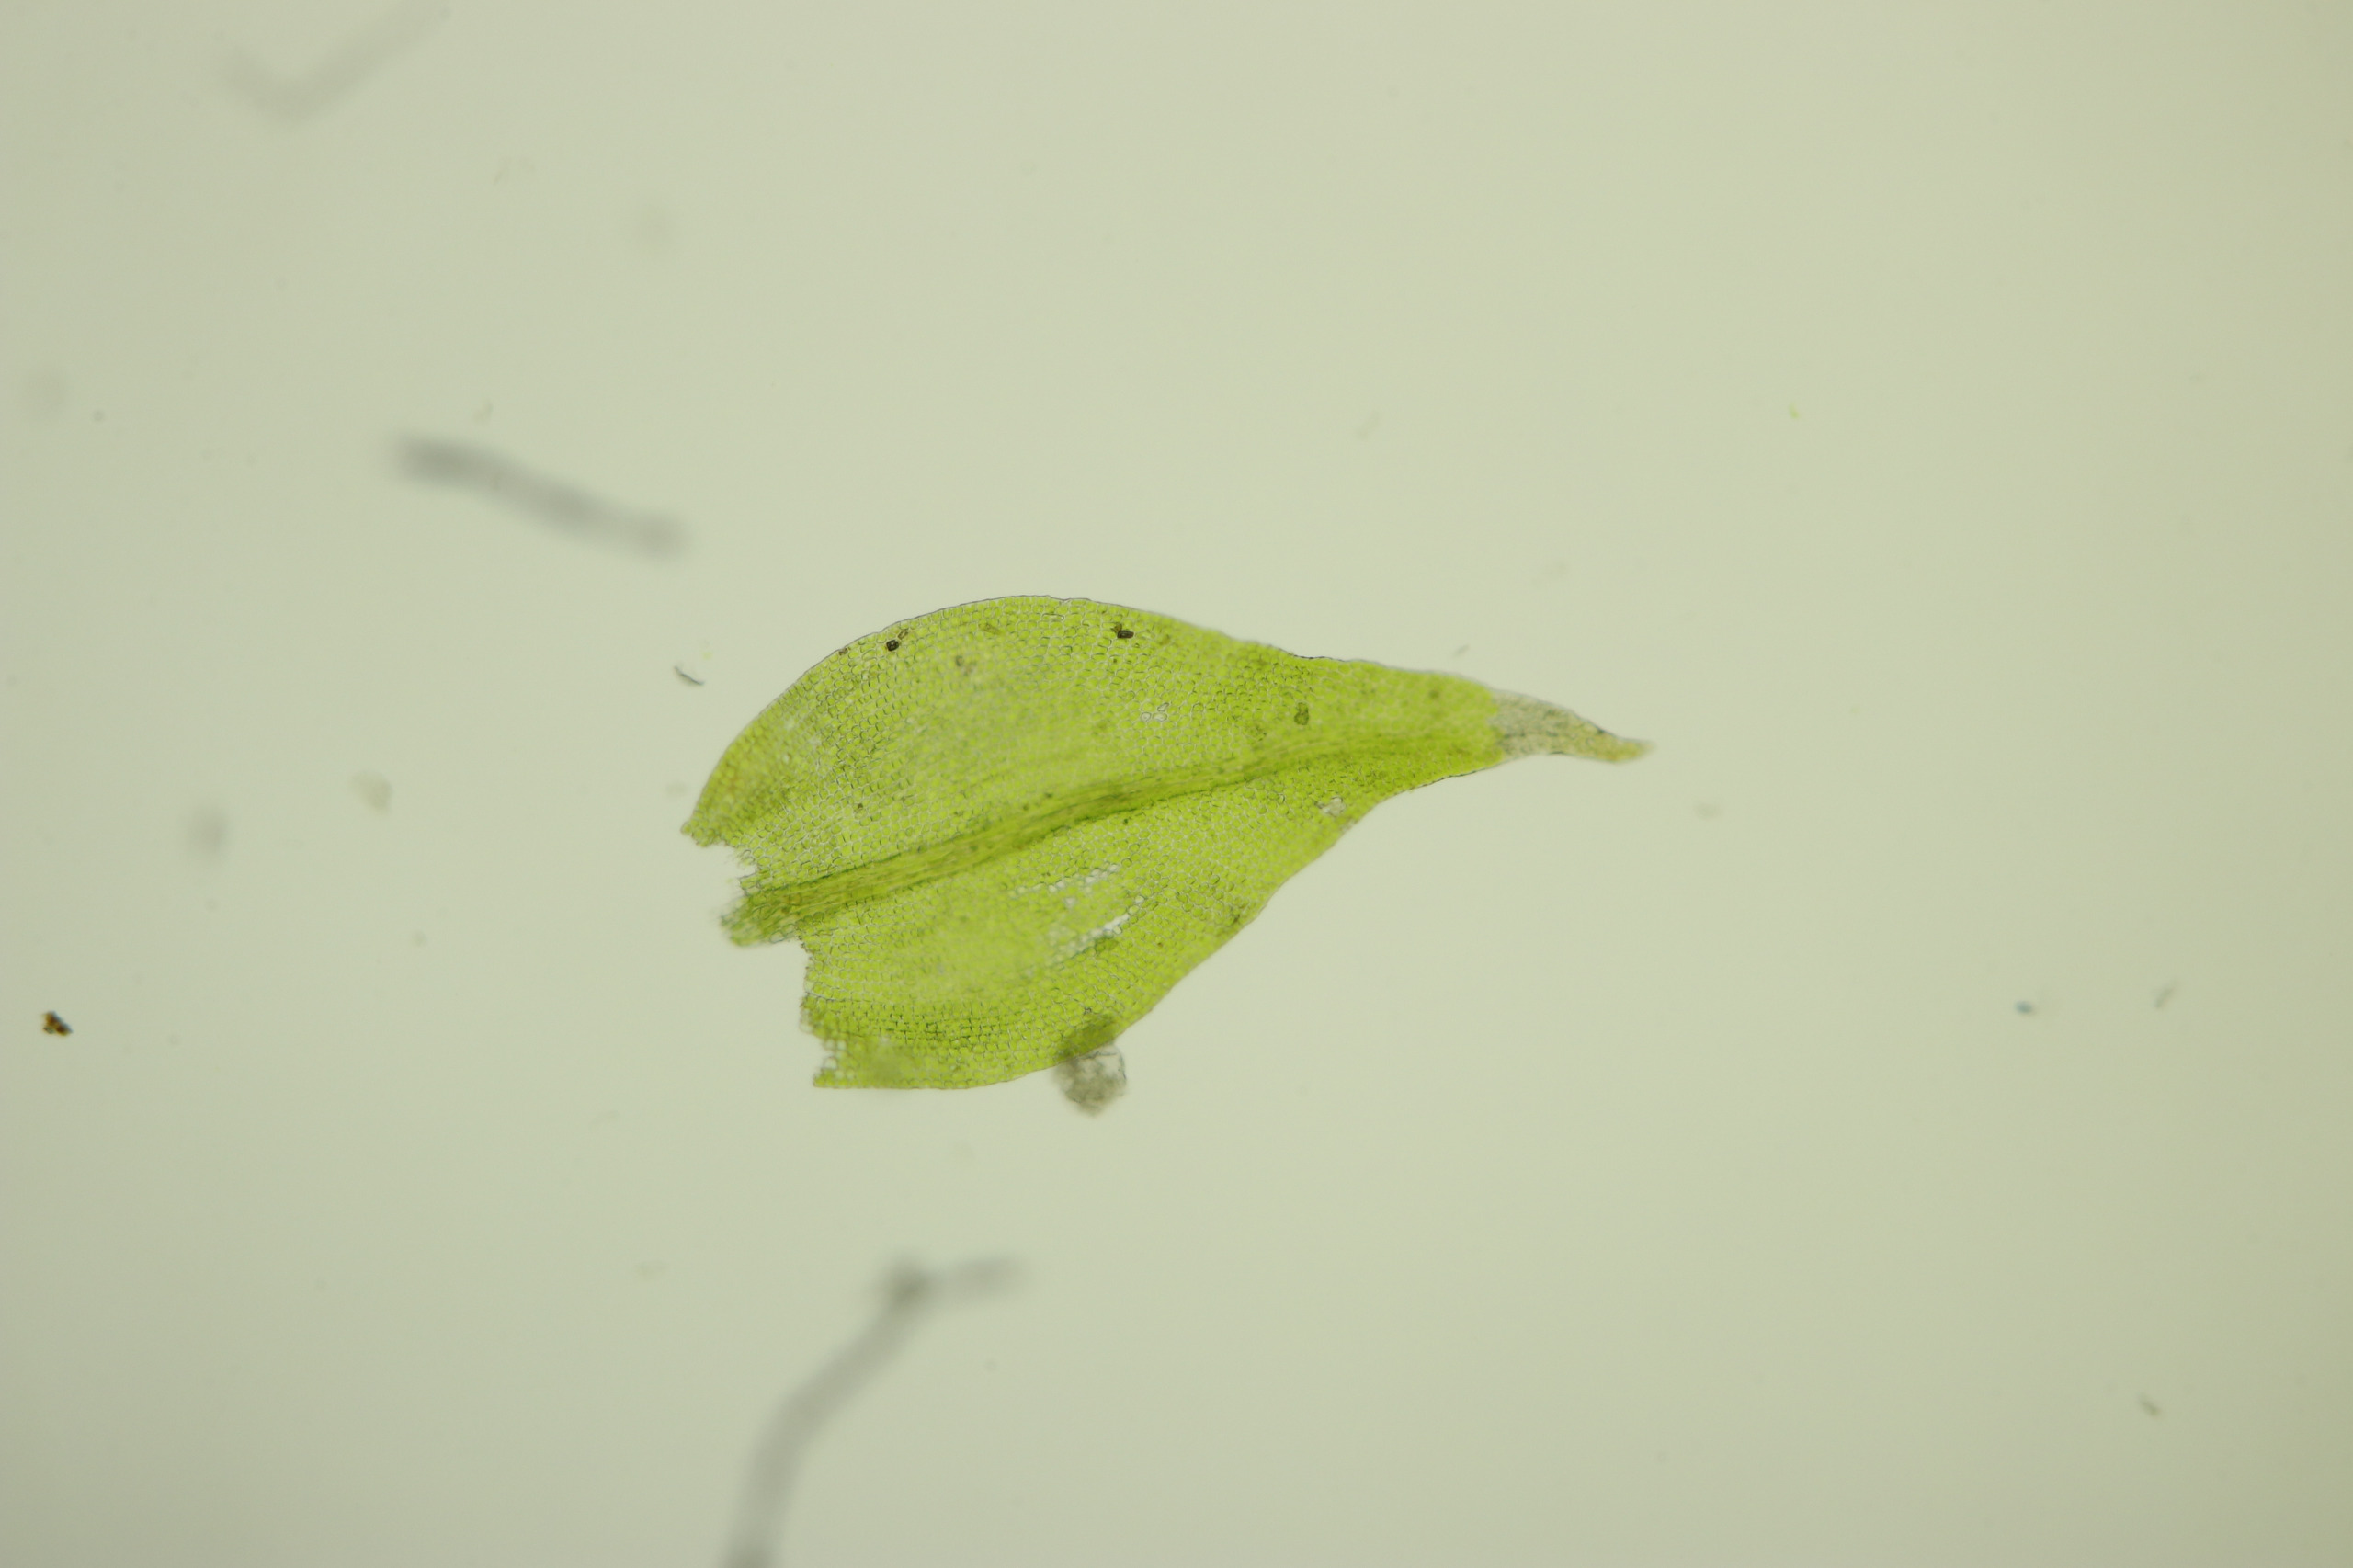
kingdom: Plantae
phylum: Bryophyta
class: Bryopsida
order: Hypnales
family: Leskeaceae
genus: Leskea
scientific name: Leskea polycarpa
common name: Mat lærkemos
